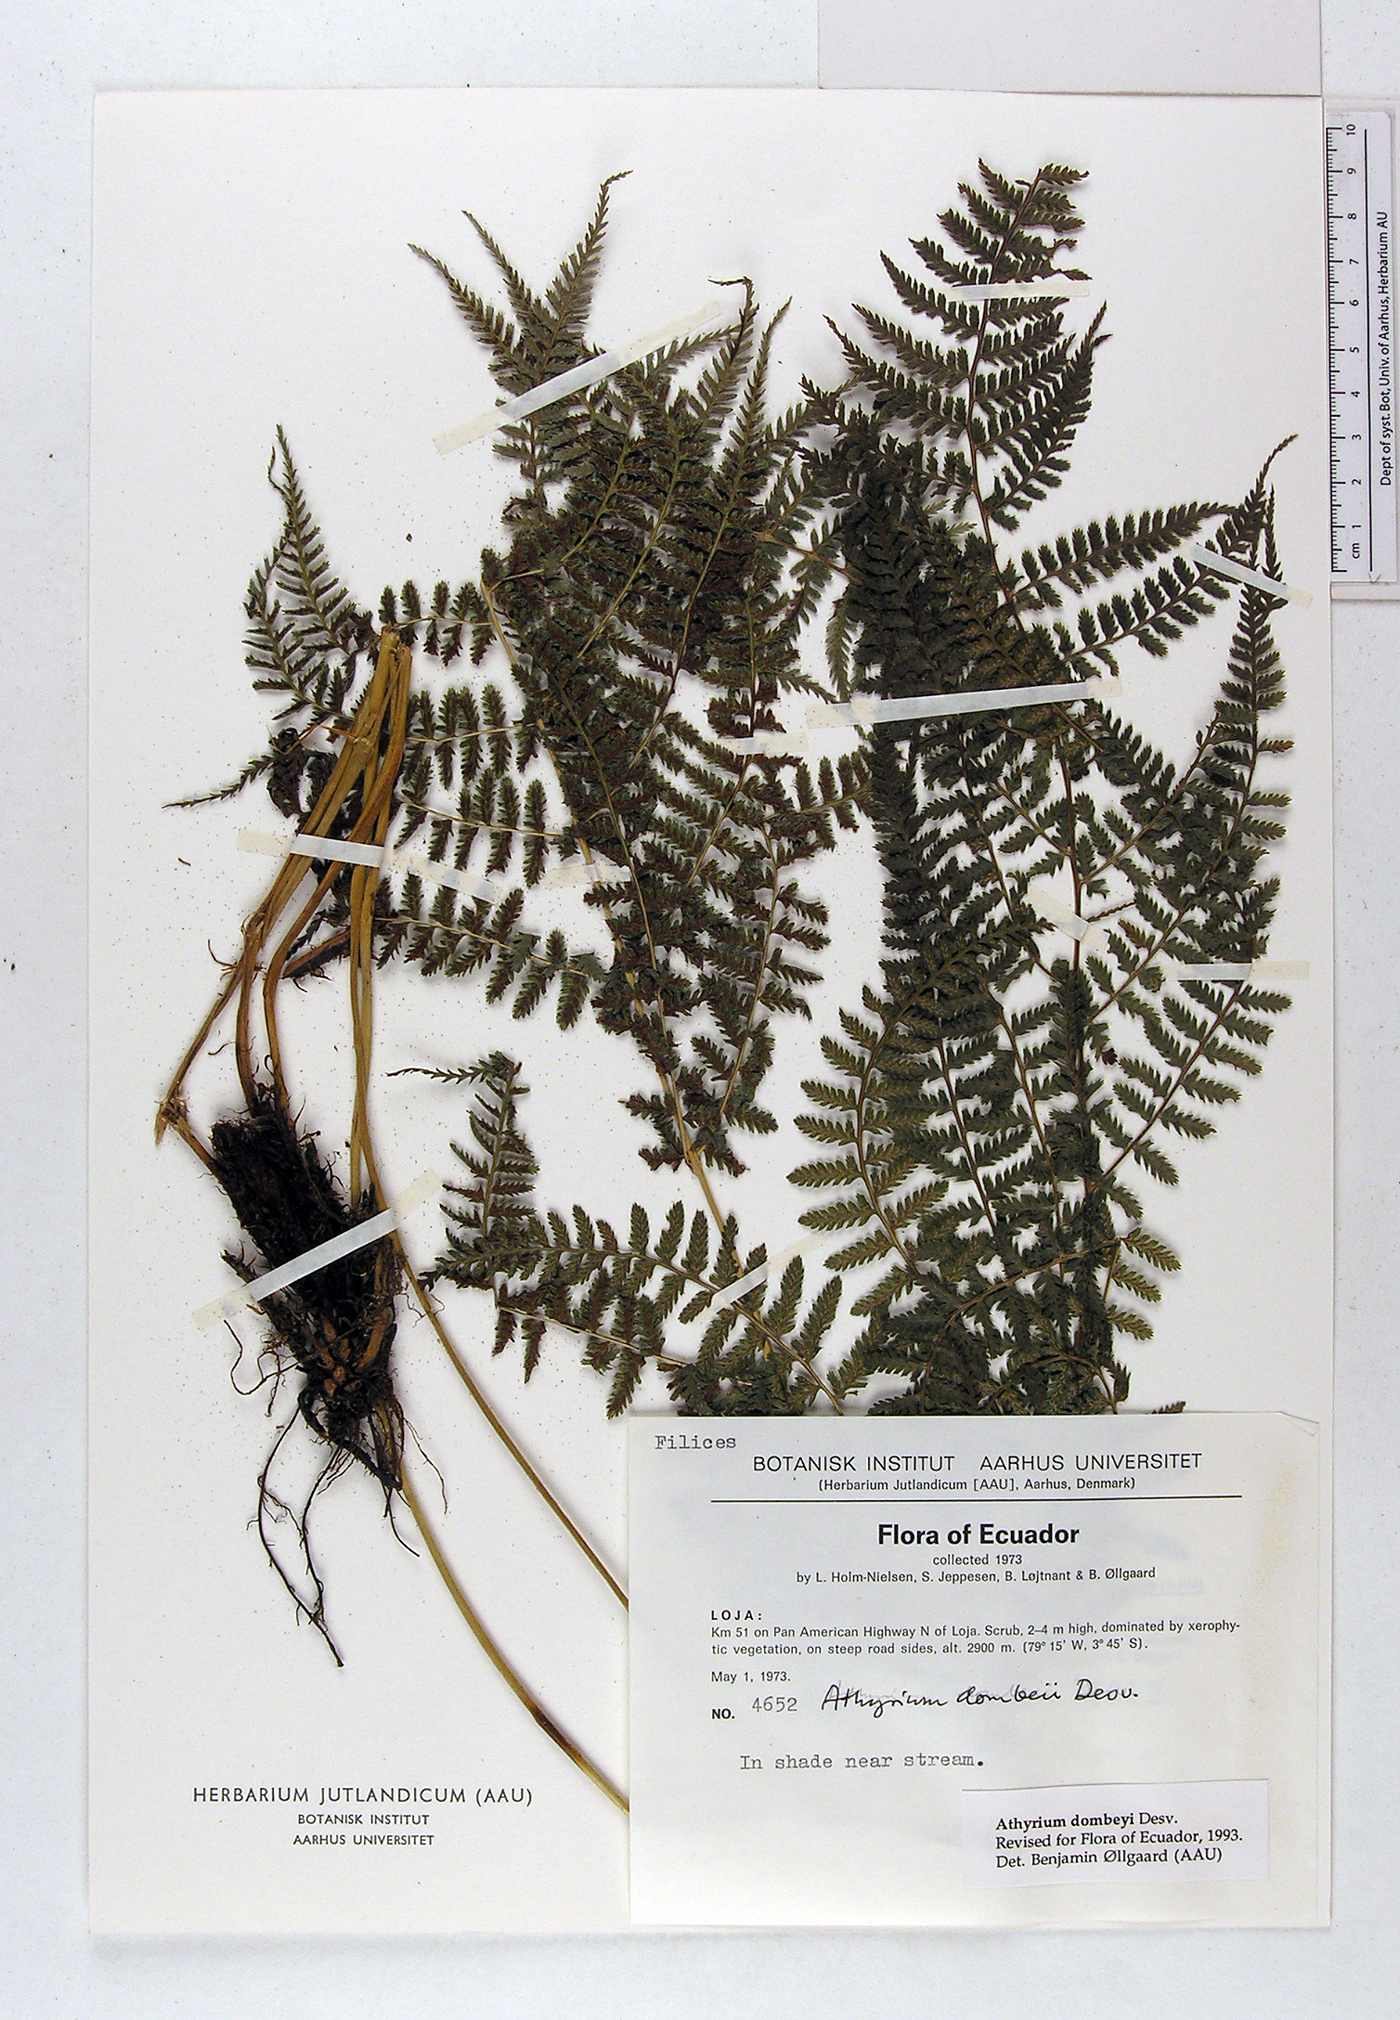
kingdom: Plantae
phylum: Tracheophyta
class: Polypodiopsida
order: Polypodiales
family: Athyriaceae
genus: Athyrium
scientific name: Athyrium dombeyi
